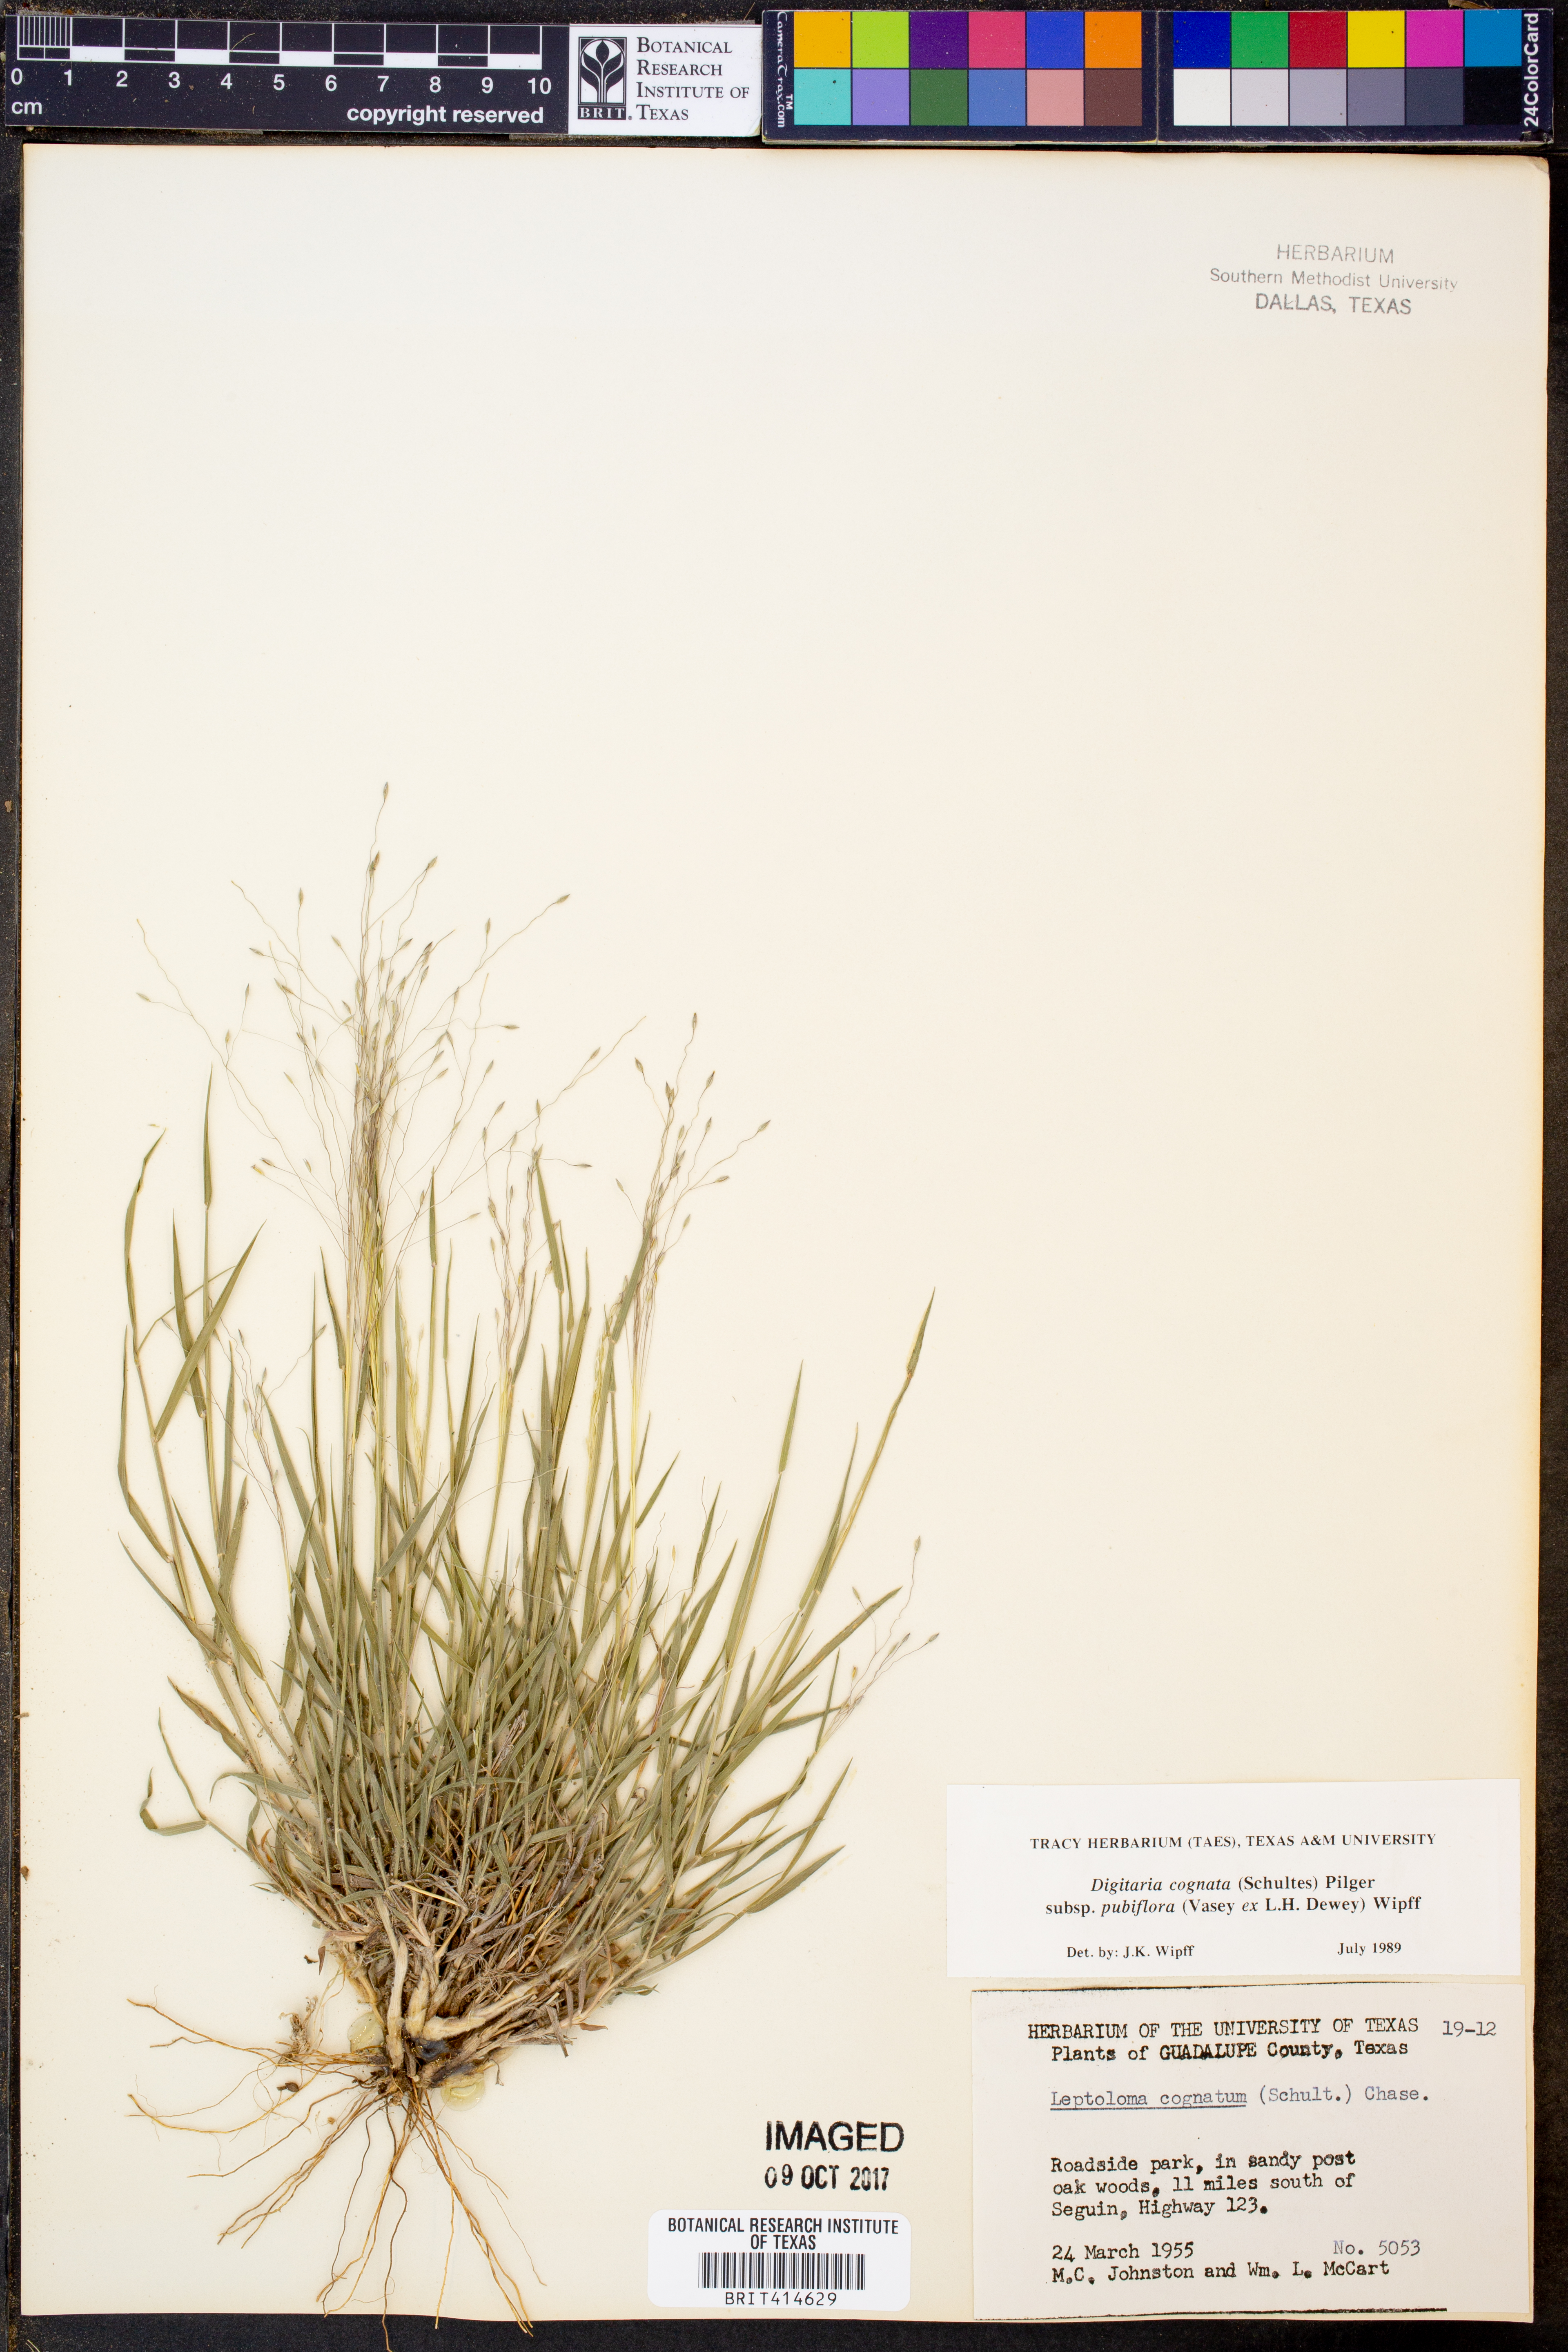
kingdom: Plantae
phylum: Tracheophyta
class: Liliopsida
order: Poales
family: Poaceae
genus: Digitaria
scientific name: Digitaria cognata
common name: Fall witchgrass
